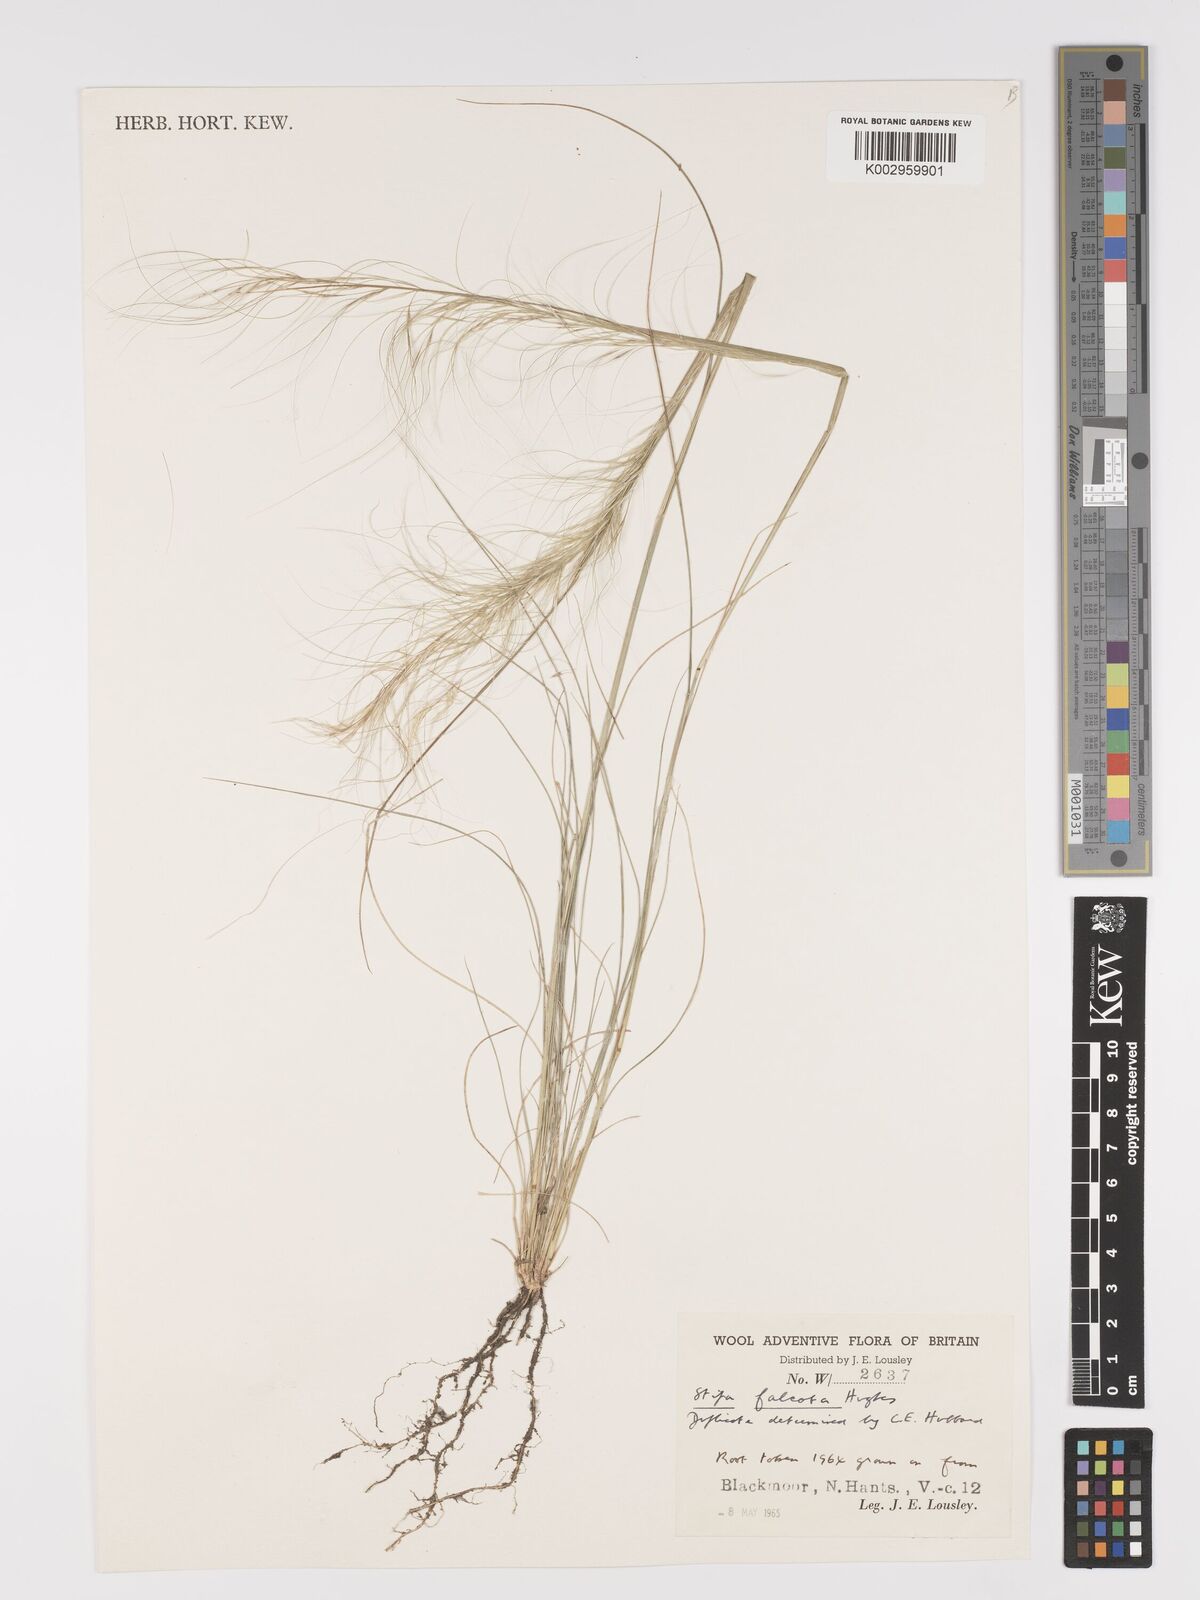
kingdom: Plantae
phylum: Tracheophyta
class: Liliopsida
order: Poales
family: Poaceae
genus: Austrostipa
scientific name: Austrostipa scabra
